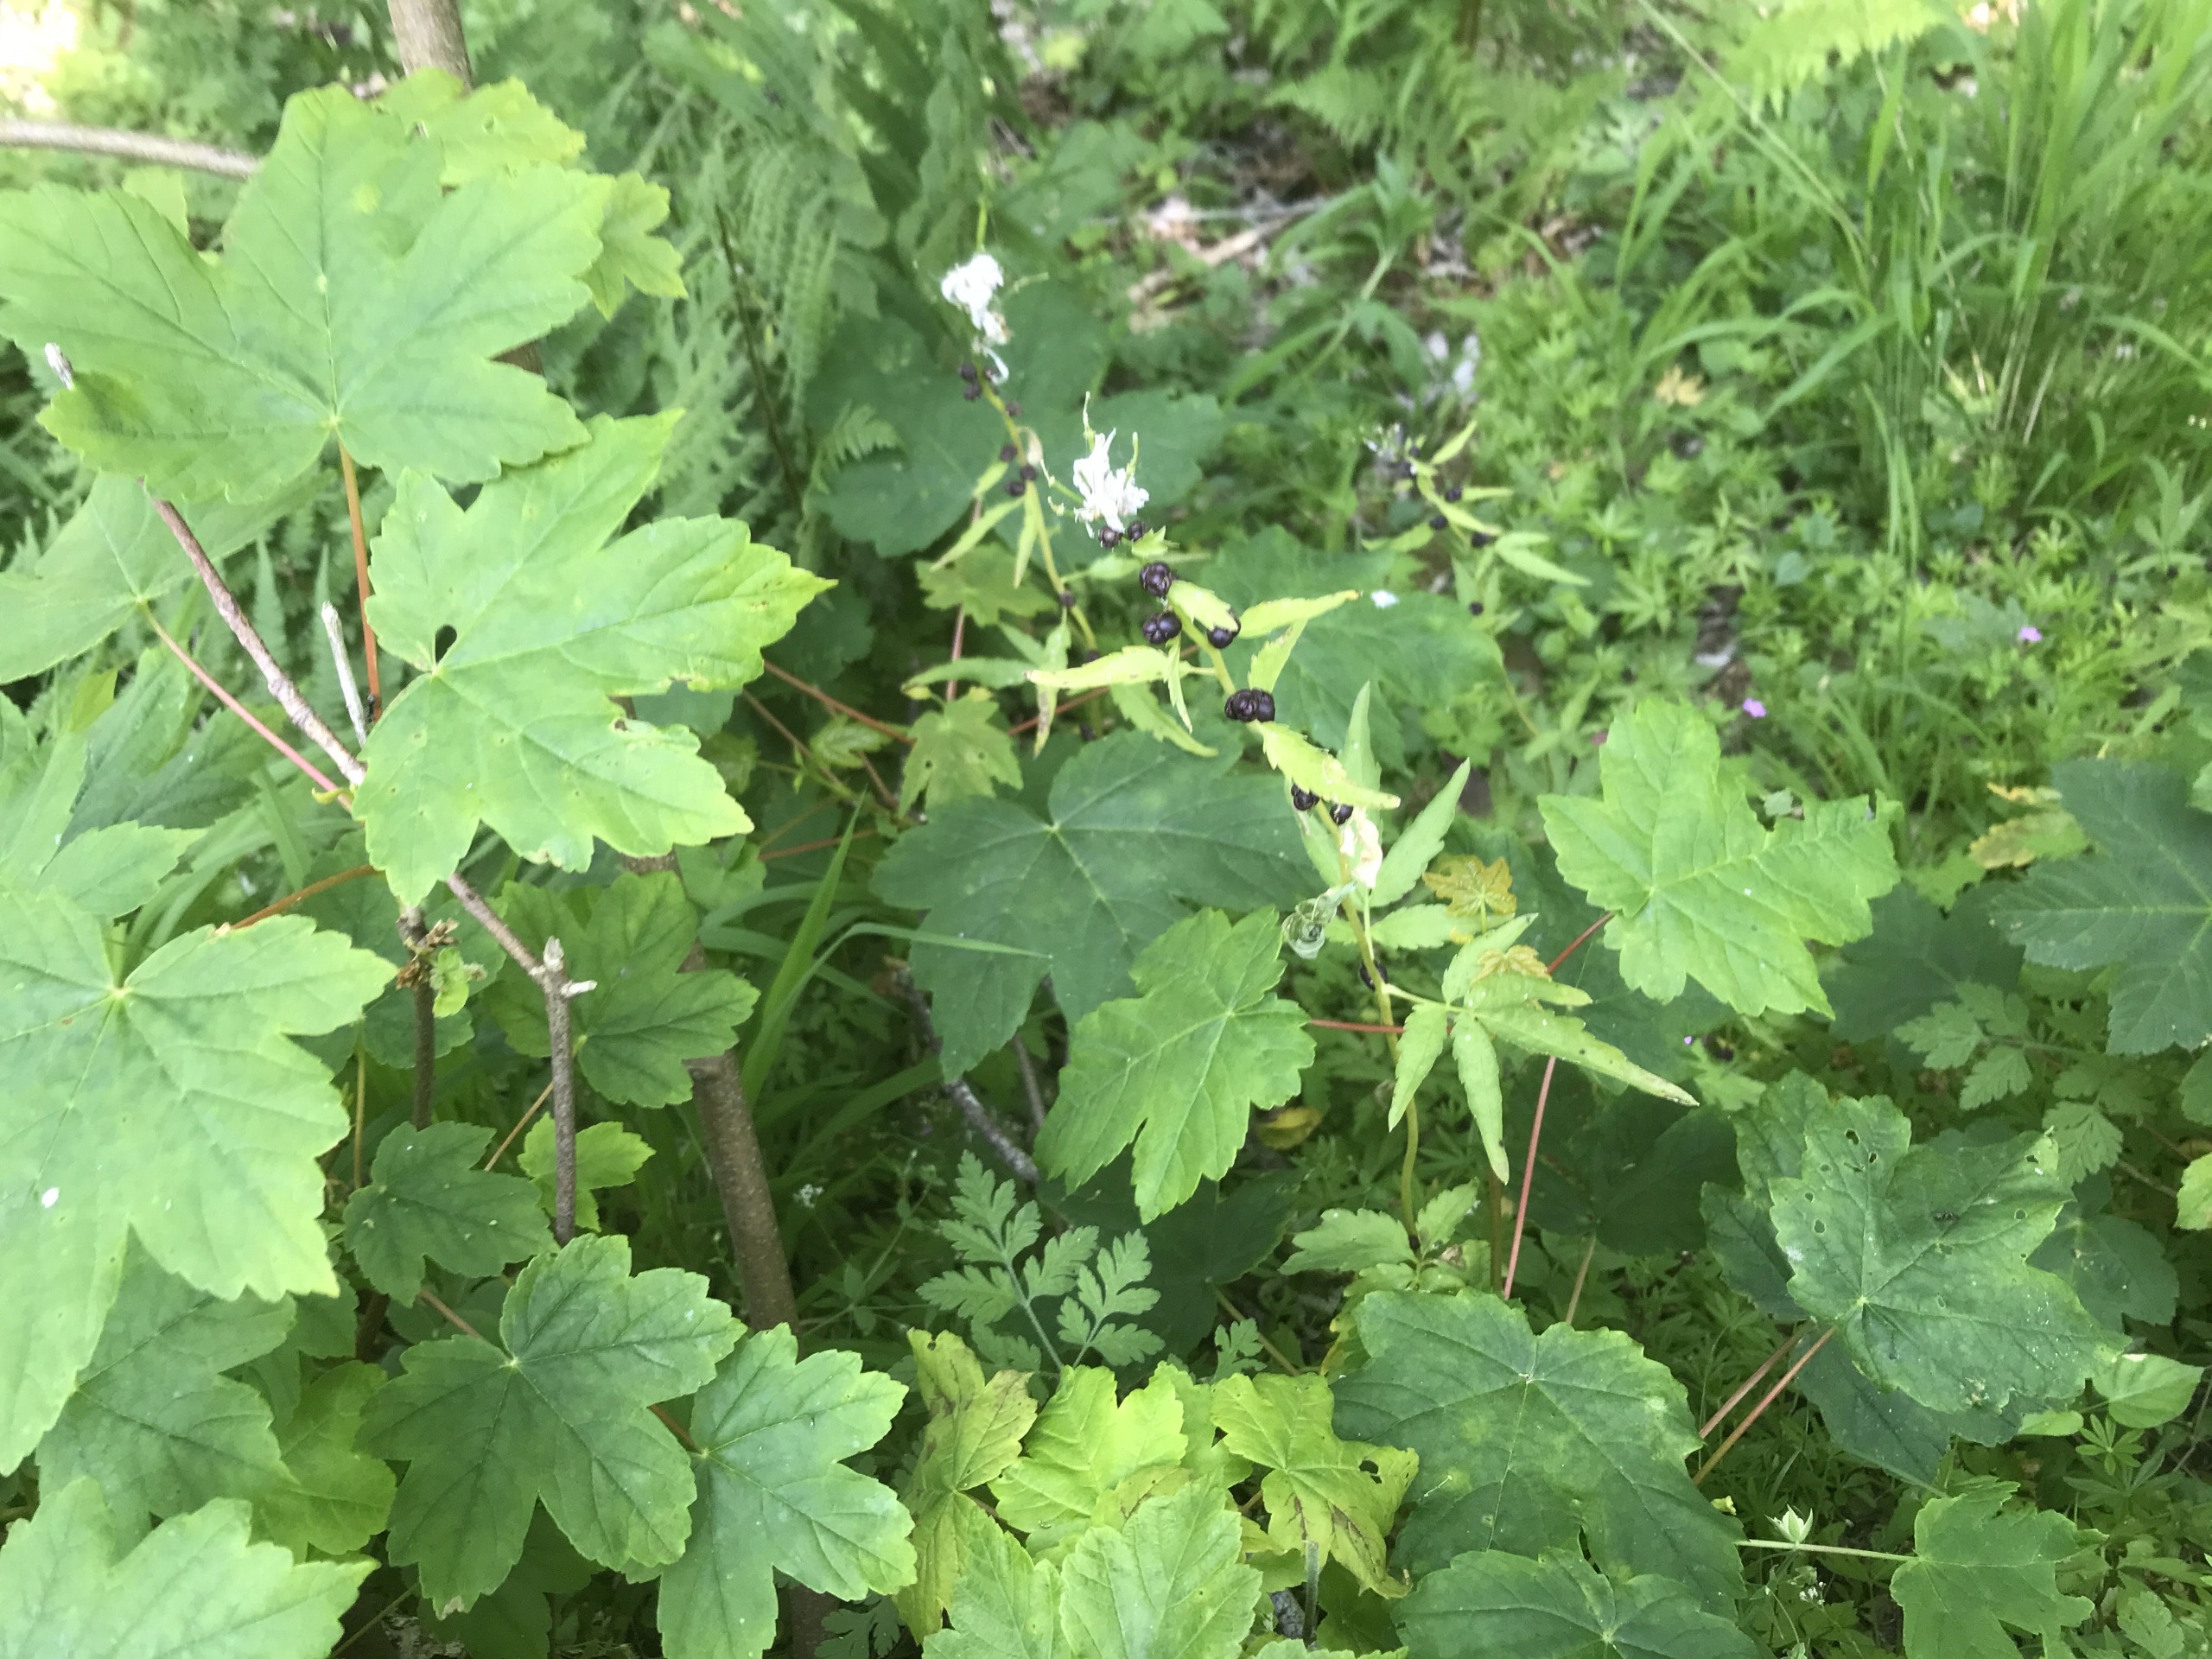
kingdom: Plantae
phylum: Tracheophyta
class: Magnoliopsida
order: Brassicales
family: Brassicaceae
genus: Cardamine
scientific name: Cardamine bulbifera
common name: Tandrod
